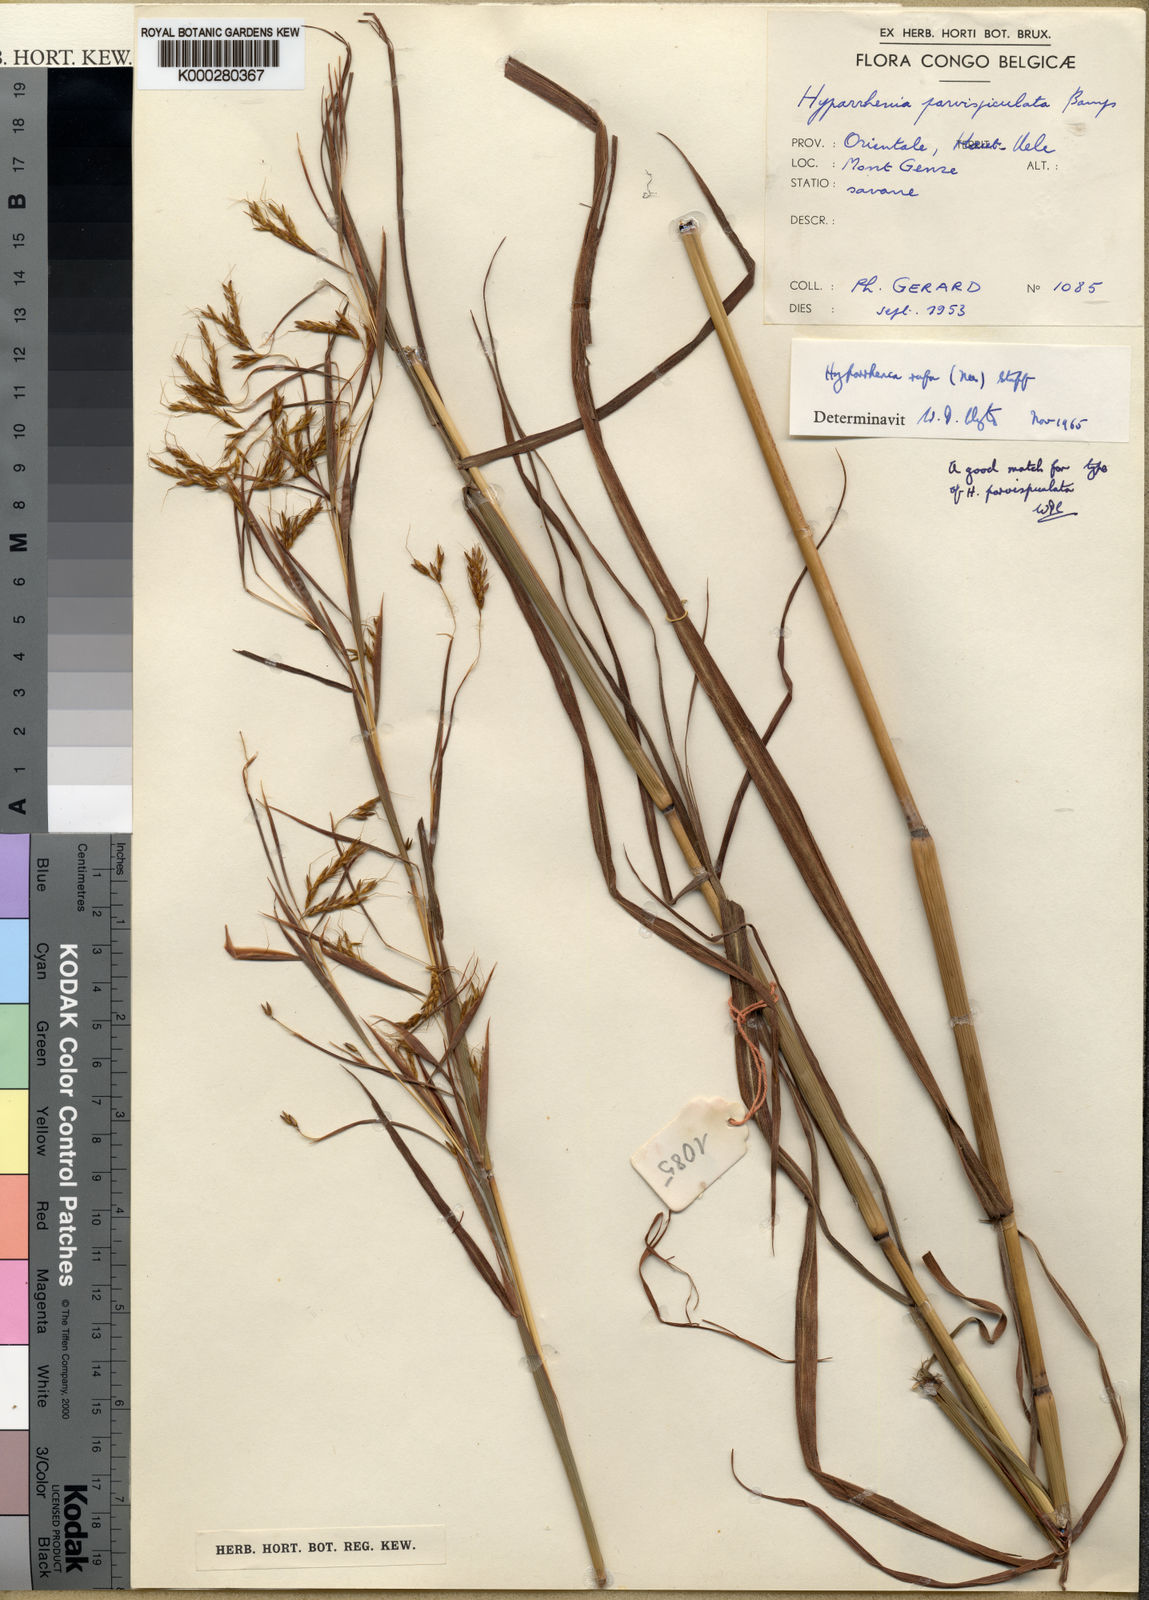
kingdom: Plantae
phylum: Tracheophyta
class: Liliopsida
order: Poales
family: Poaceae
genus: Hyparrhenia
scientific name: Hyparrhenia rufa
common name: Jaraguagrass
